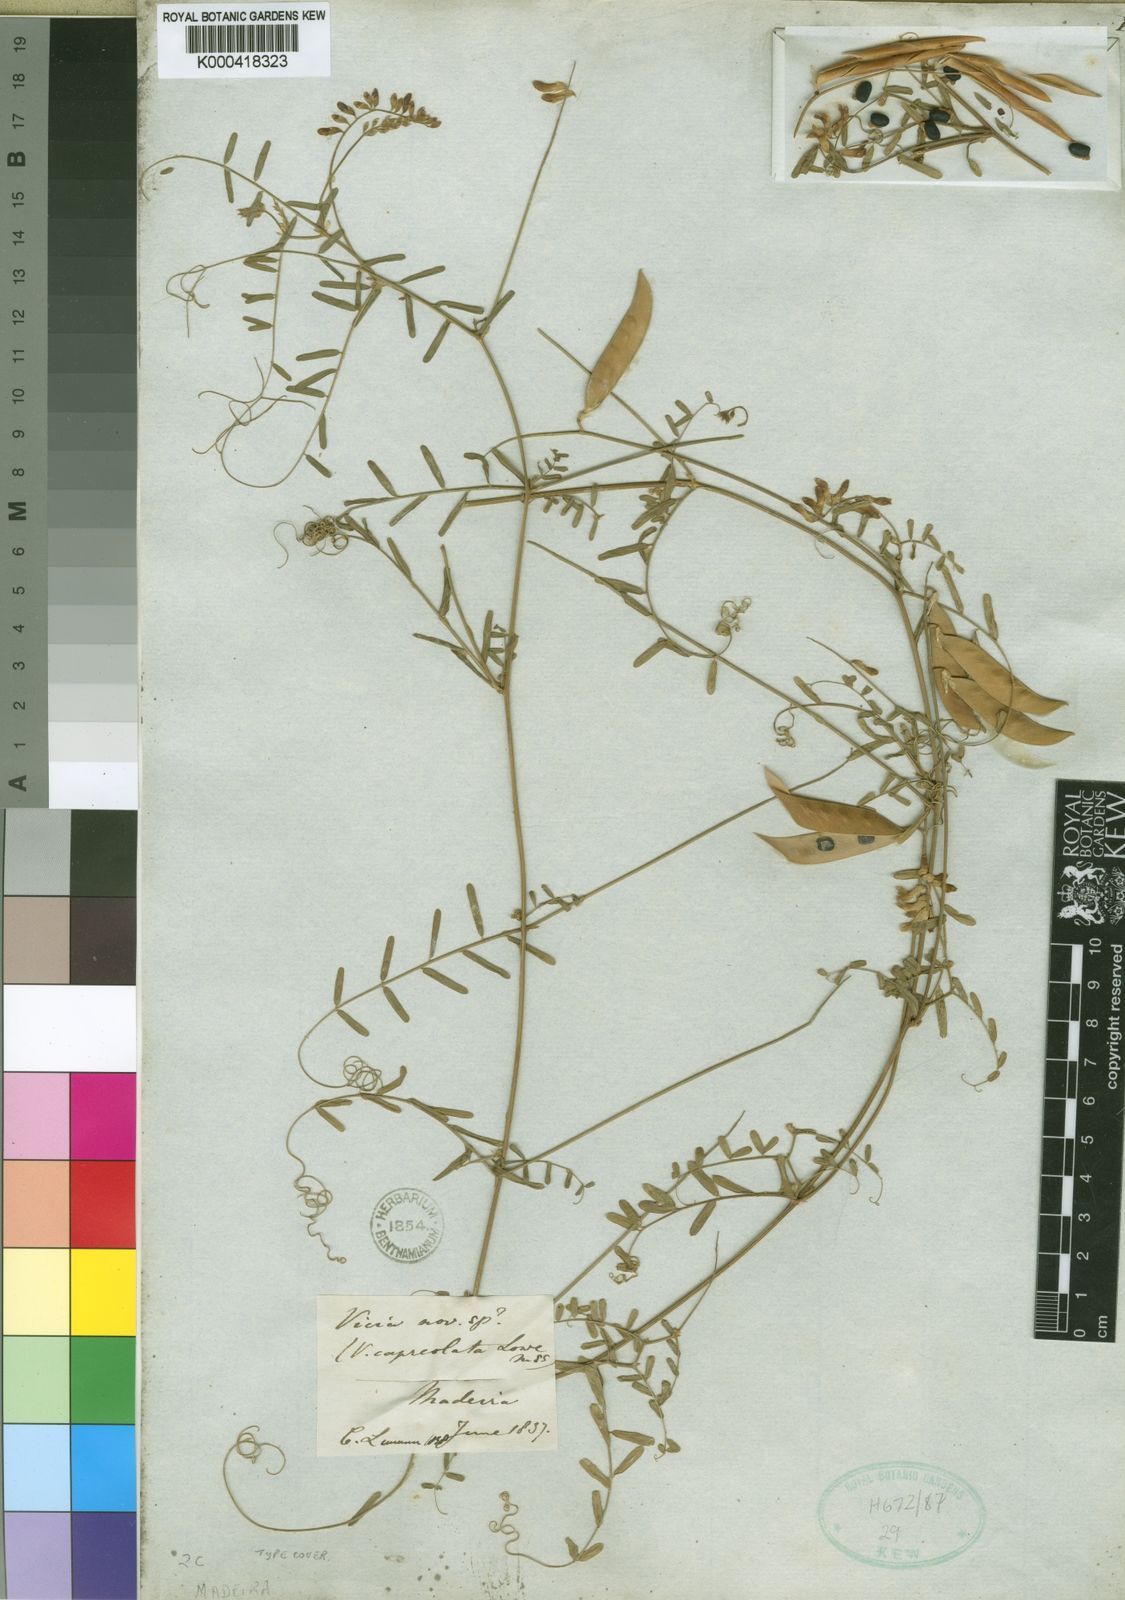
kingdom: Plantae
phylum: Tracheophyta
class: Magnoliopsida
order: Fabales
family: Fabaceae
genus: Vicia
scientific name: Vicia capreolata
